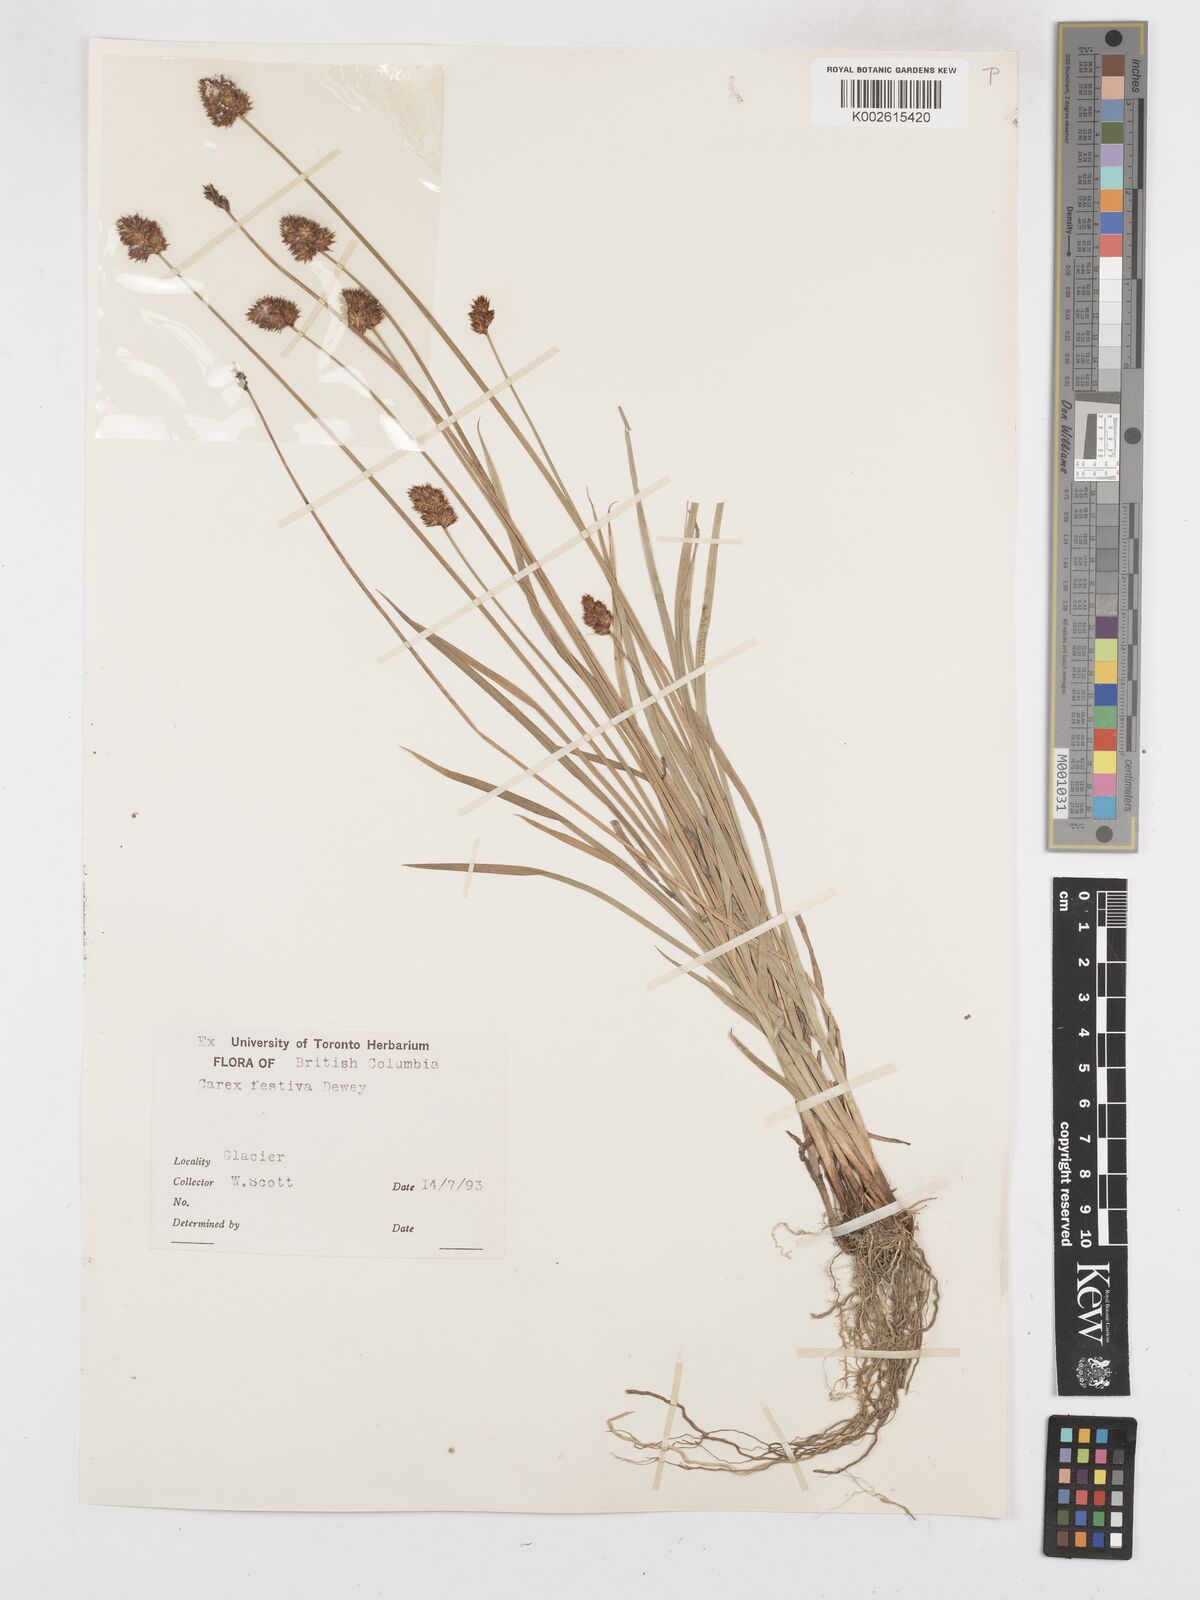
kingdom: Plantae
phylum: Tracheophyta
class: Liliopsida
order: Poales
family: Cyperaceae
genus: Carex
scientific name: Carex microptera
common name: Oval-headed sedge
